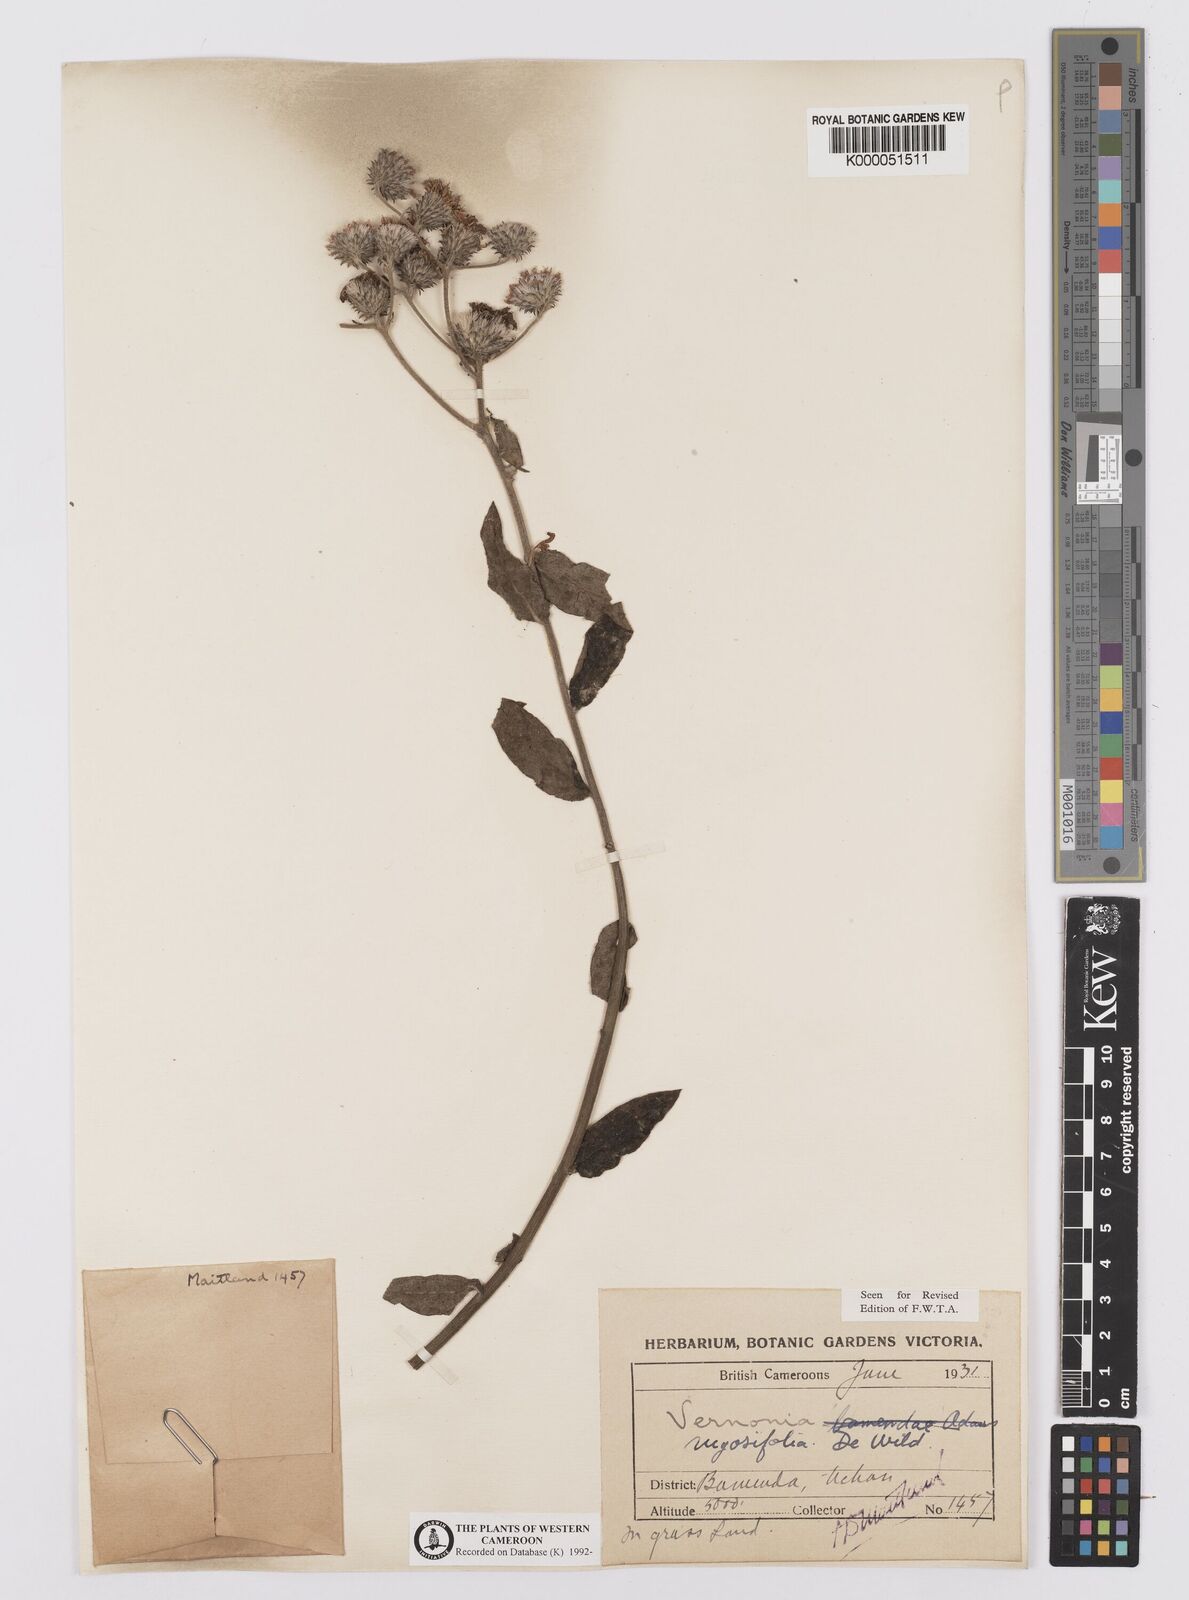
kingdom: Plantae
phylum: Tracheophyta
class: Magnoliopsida
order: Asterales
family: Asteraceae
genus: Orbivestus
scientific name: Orbivestus turbinata
